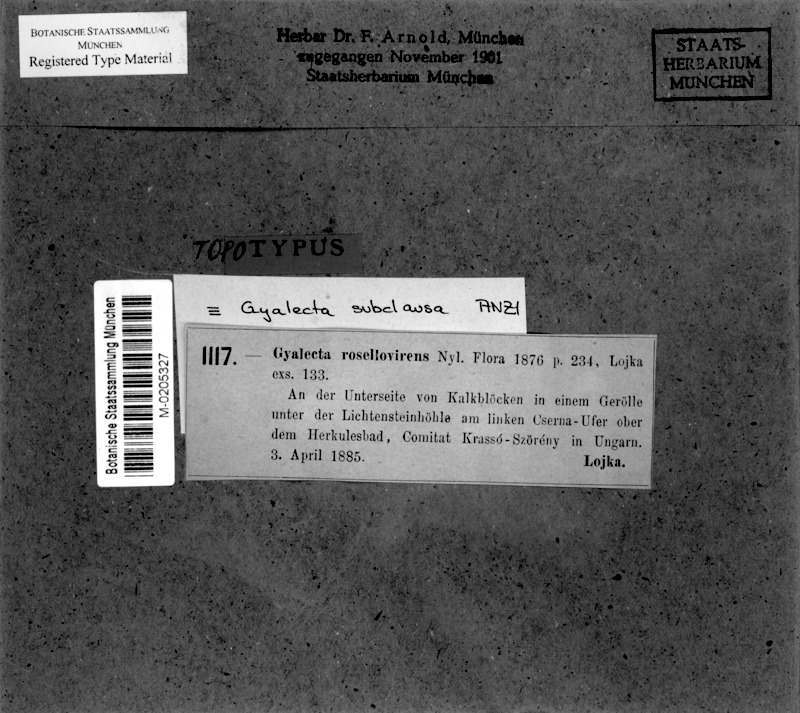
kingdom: Fungi
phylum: Ascomycota
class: Lecanoromycetes
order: Gyalectales
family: Gyalectaceae
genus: Gyalecta
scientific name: Gyalecta subclausa
